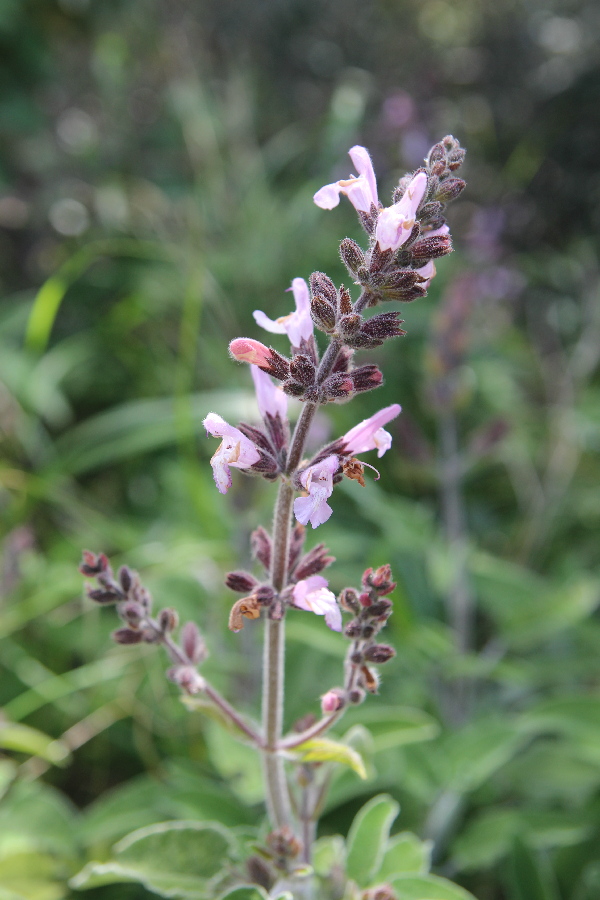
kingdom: Plantae
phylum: Tracheophyta
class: Magnoliopsida
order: Lamiales
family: Lamiaceae
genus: Salvia
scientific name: Salvia fruticosa
